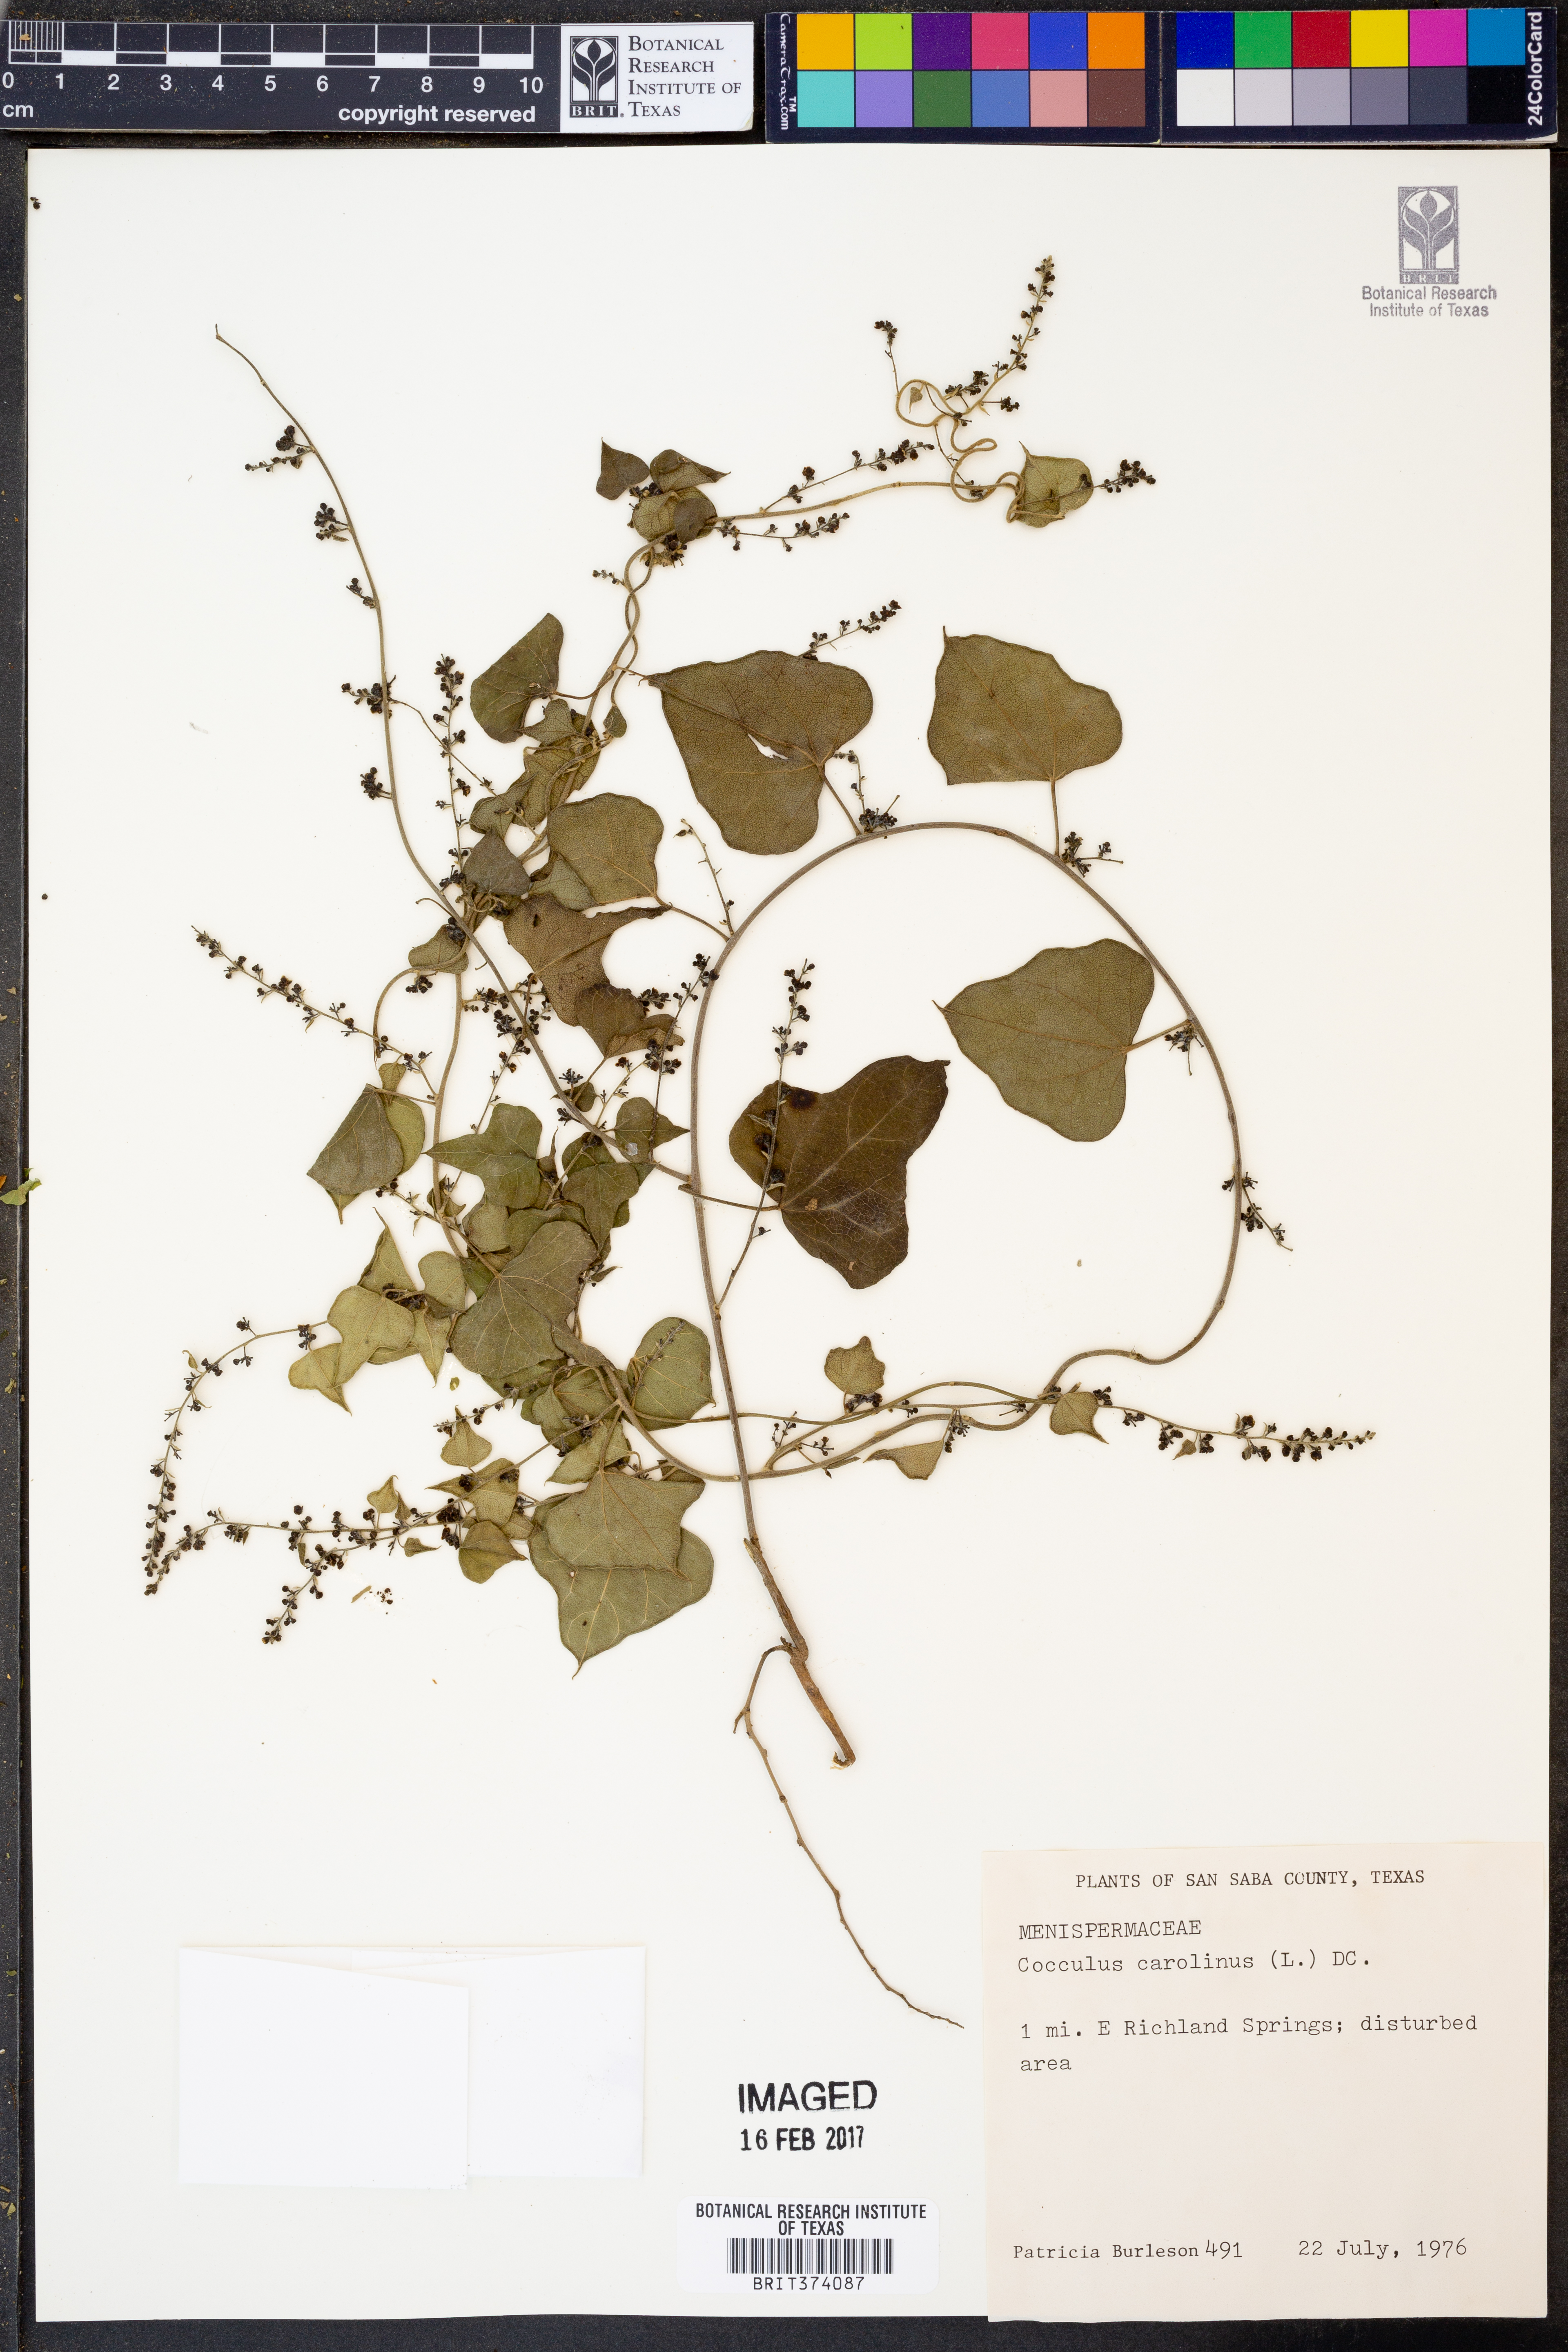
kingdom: Plantae
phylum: Tracheophyta
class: Magnoliopsida
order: Ranunculales
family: Menispermaceae
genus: Cocculus
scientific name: Cocculus carolinus
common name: Carolina moonseed
